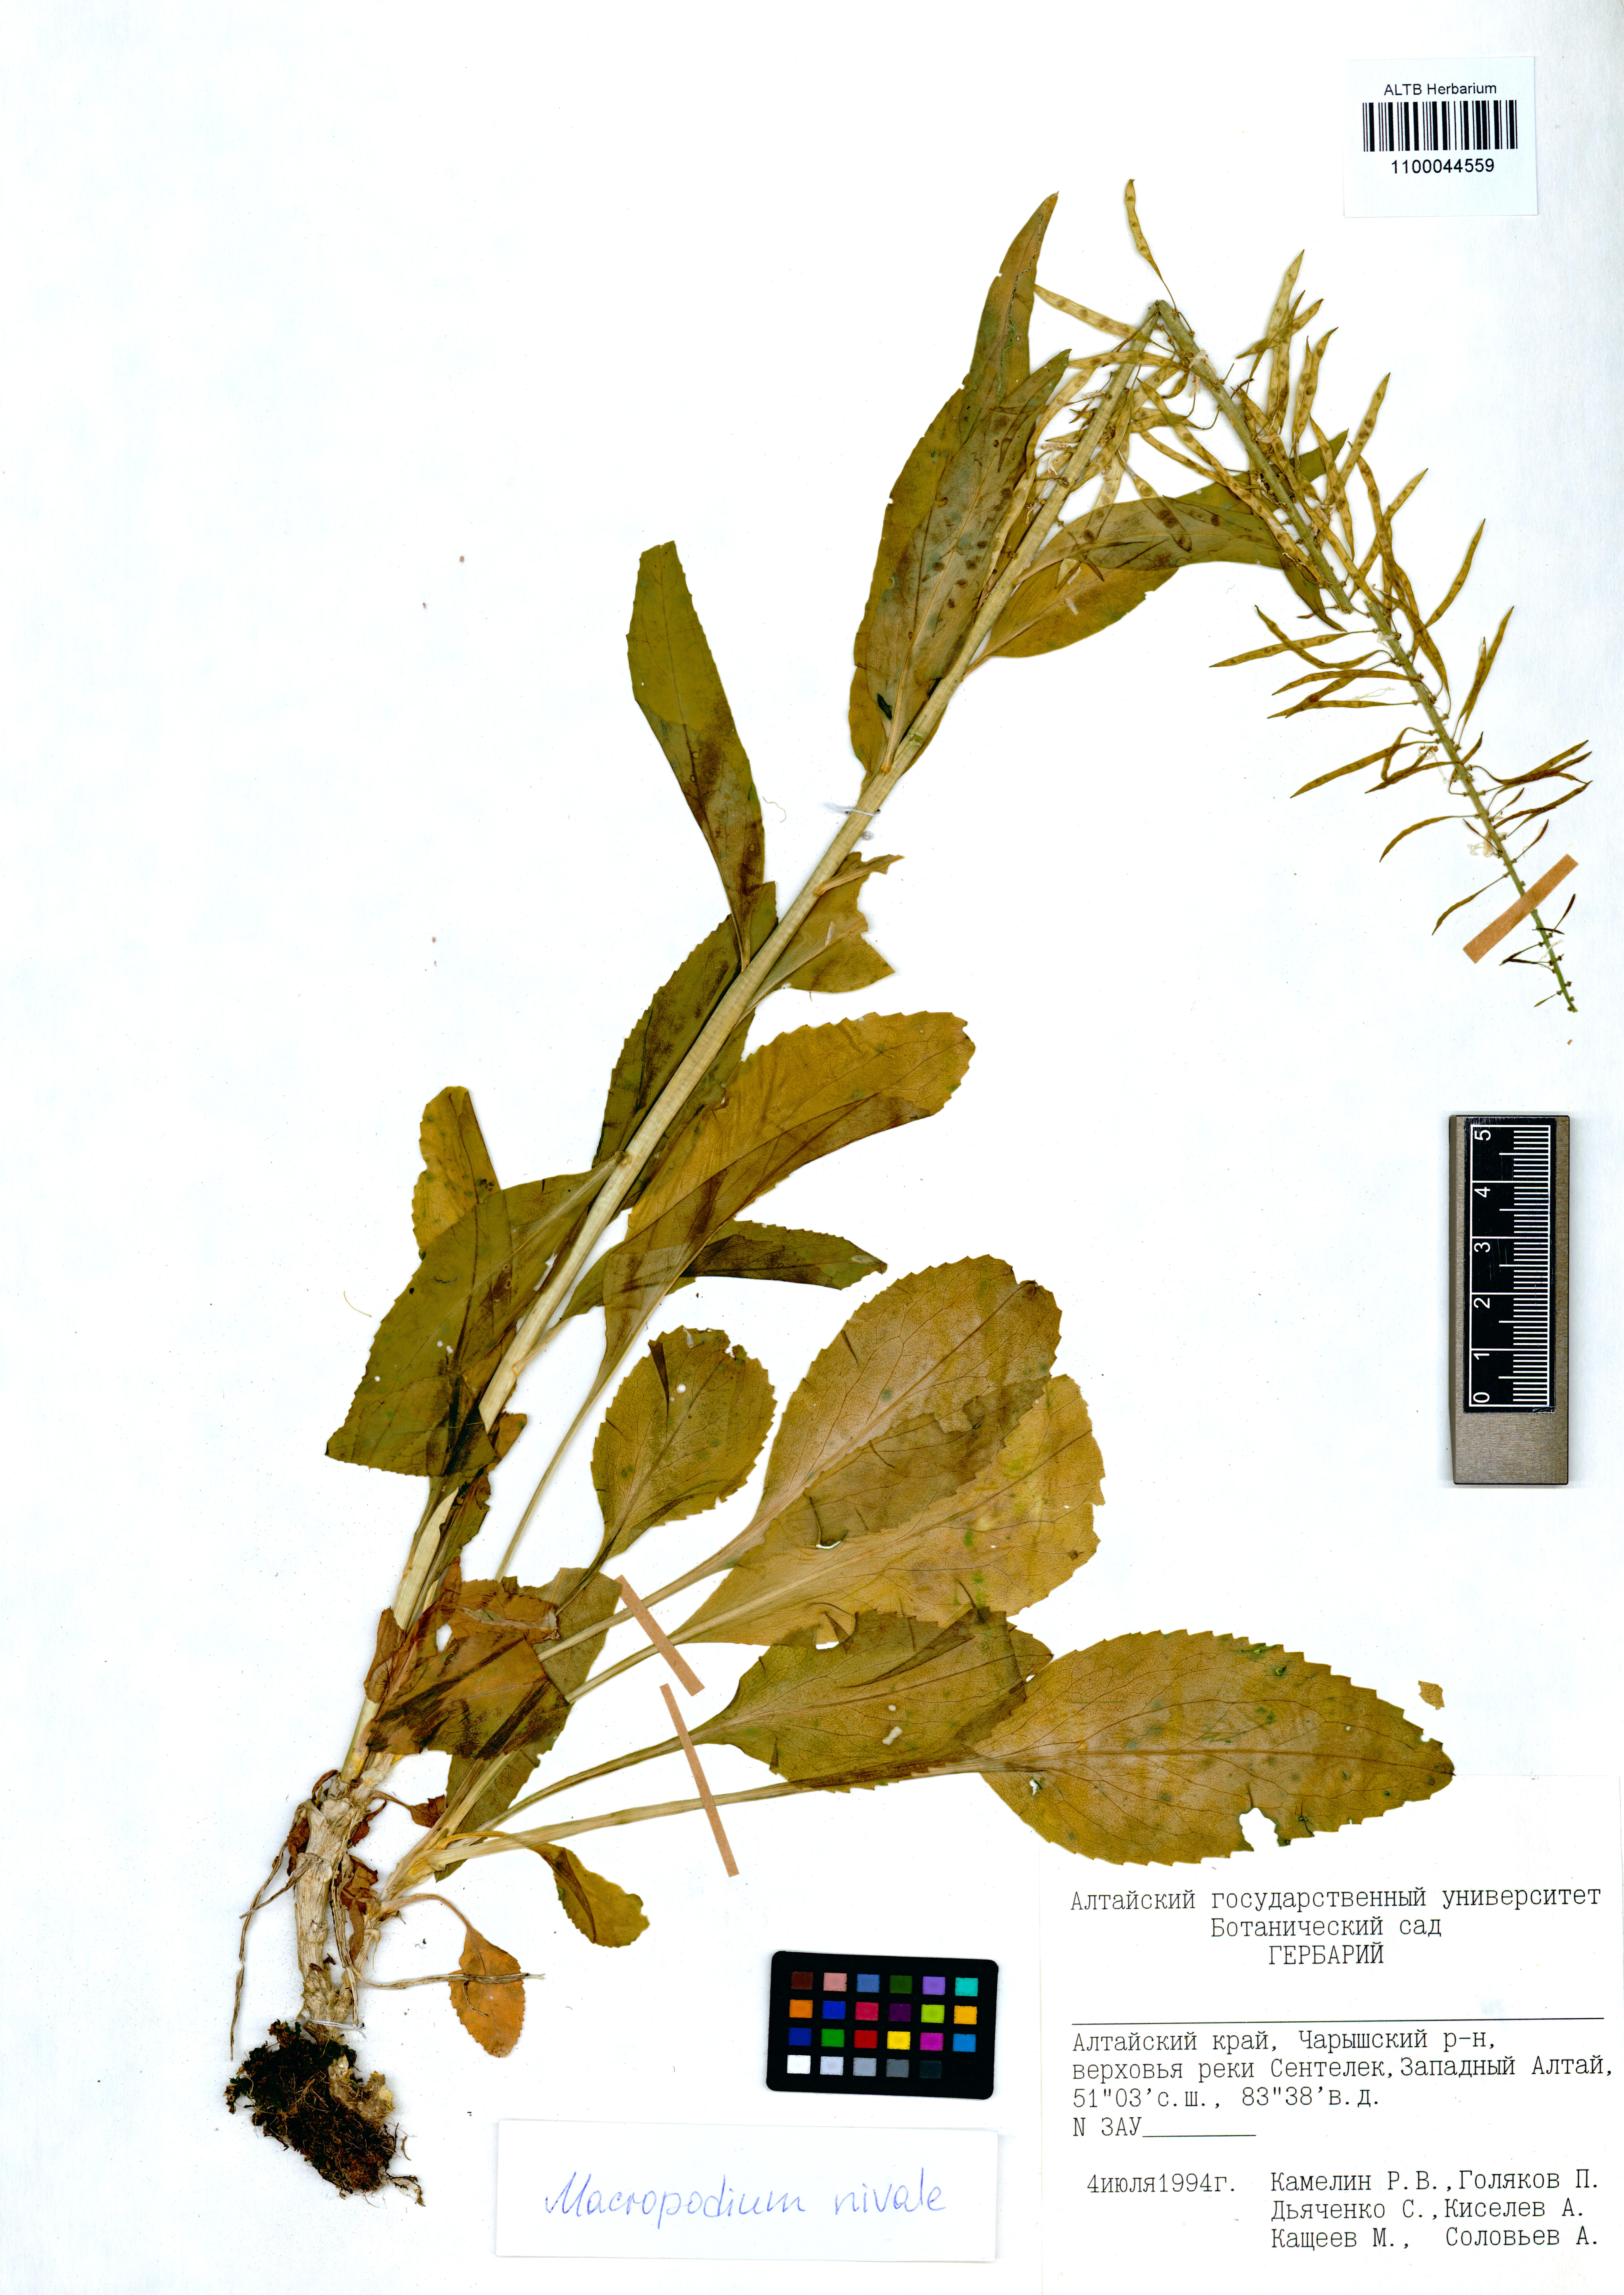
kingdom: Plantae
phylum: Tracheophyta
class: Magnoliopsida
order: Brassicales
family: Brassicaceae
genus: Macropodium
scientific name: Macropodium nivale
